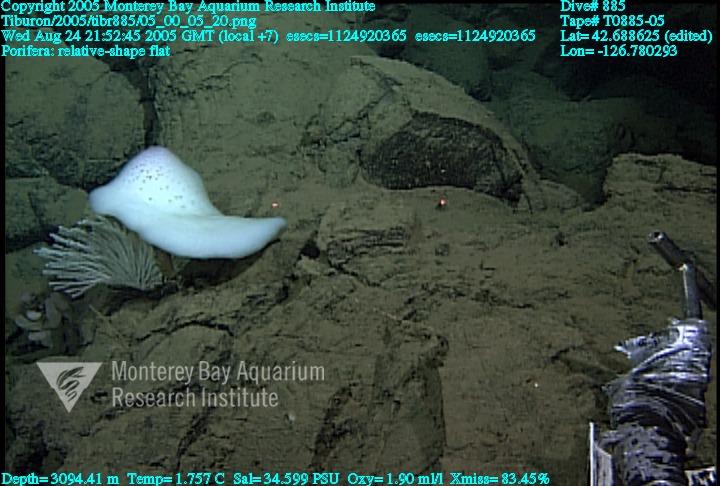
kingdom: Animalia
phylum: Porifera
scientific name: Porifera
